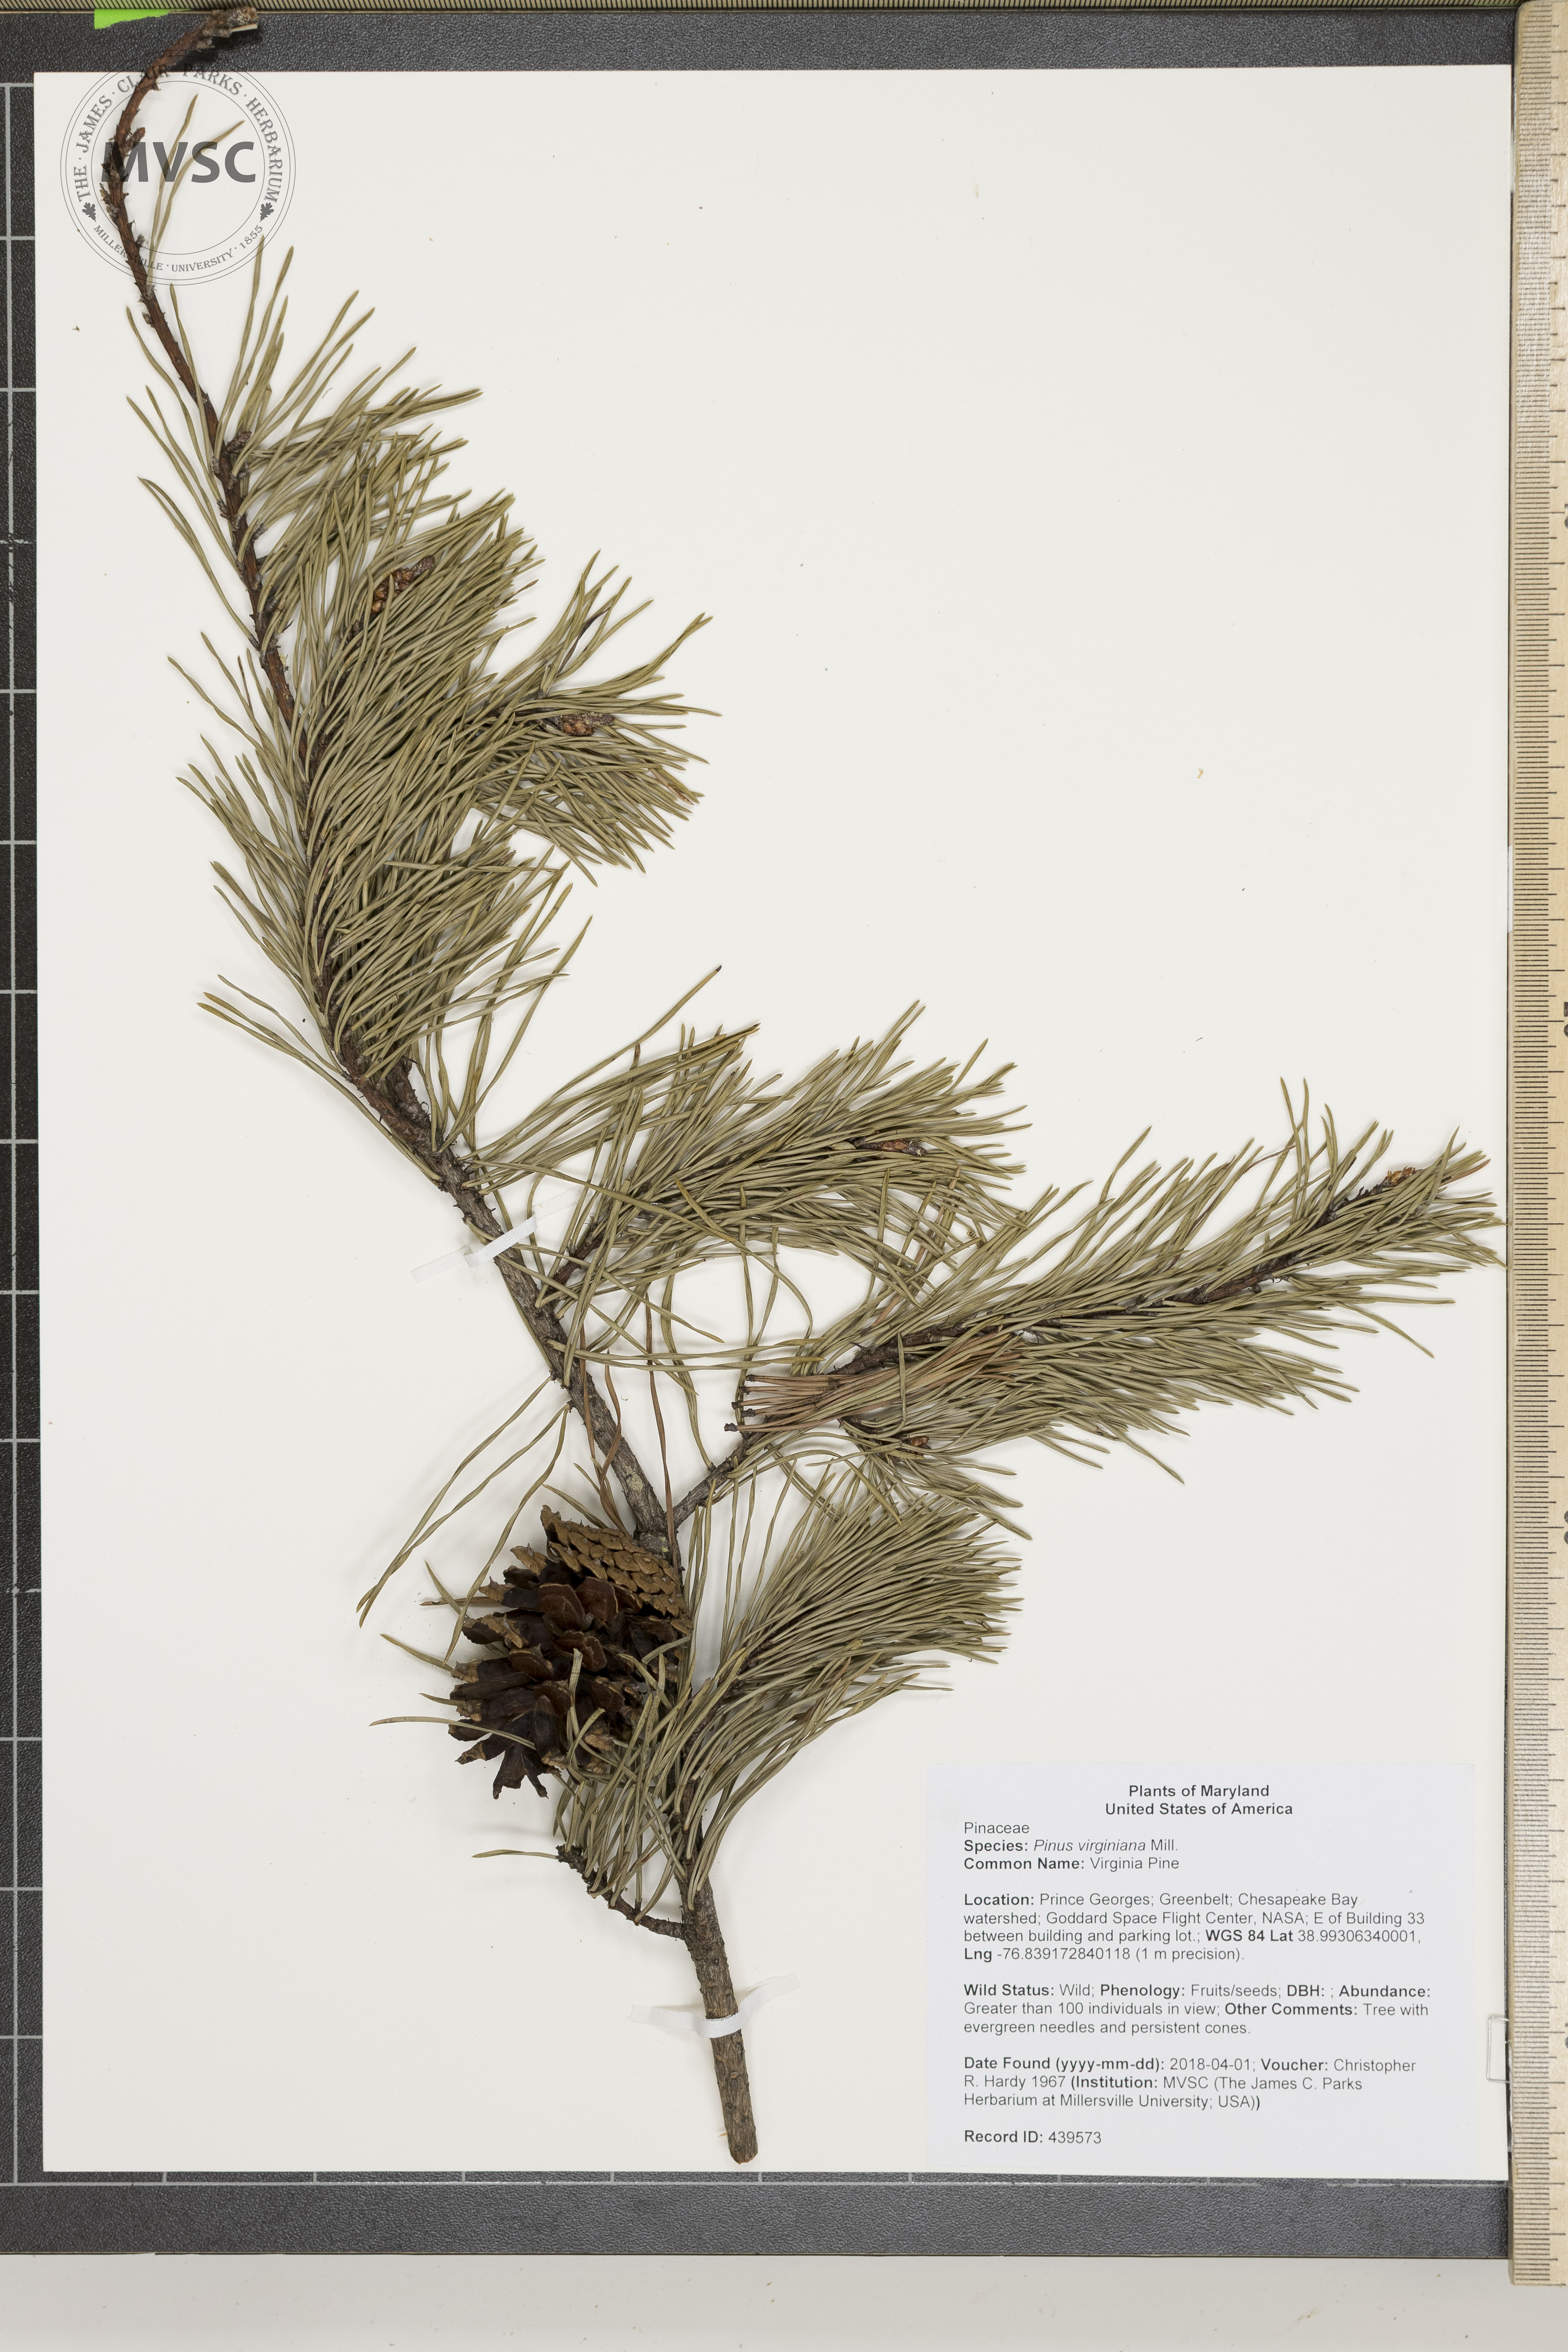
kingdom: Plantae
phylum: Tracheophyta
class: Pinopsida
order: Pinales
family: Pinaceae
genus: Pinus
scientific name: Pinus virginiana
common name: Virginia Pine
